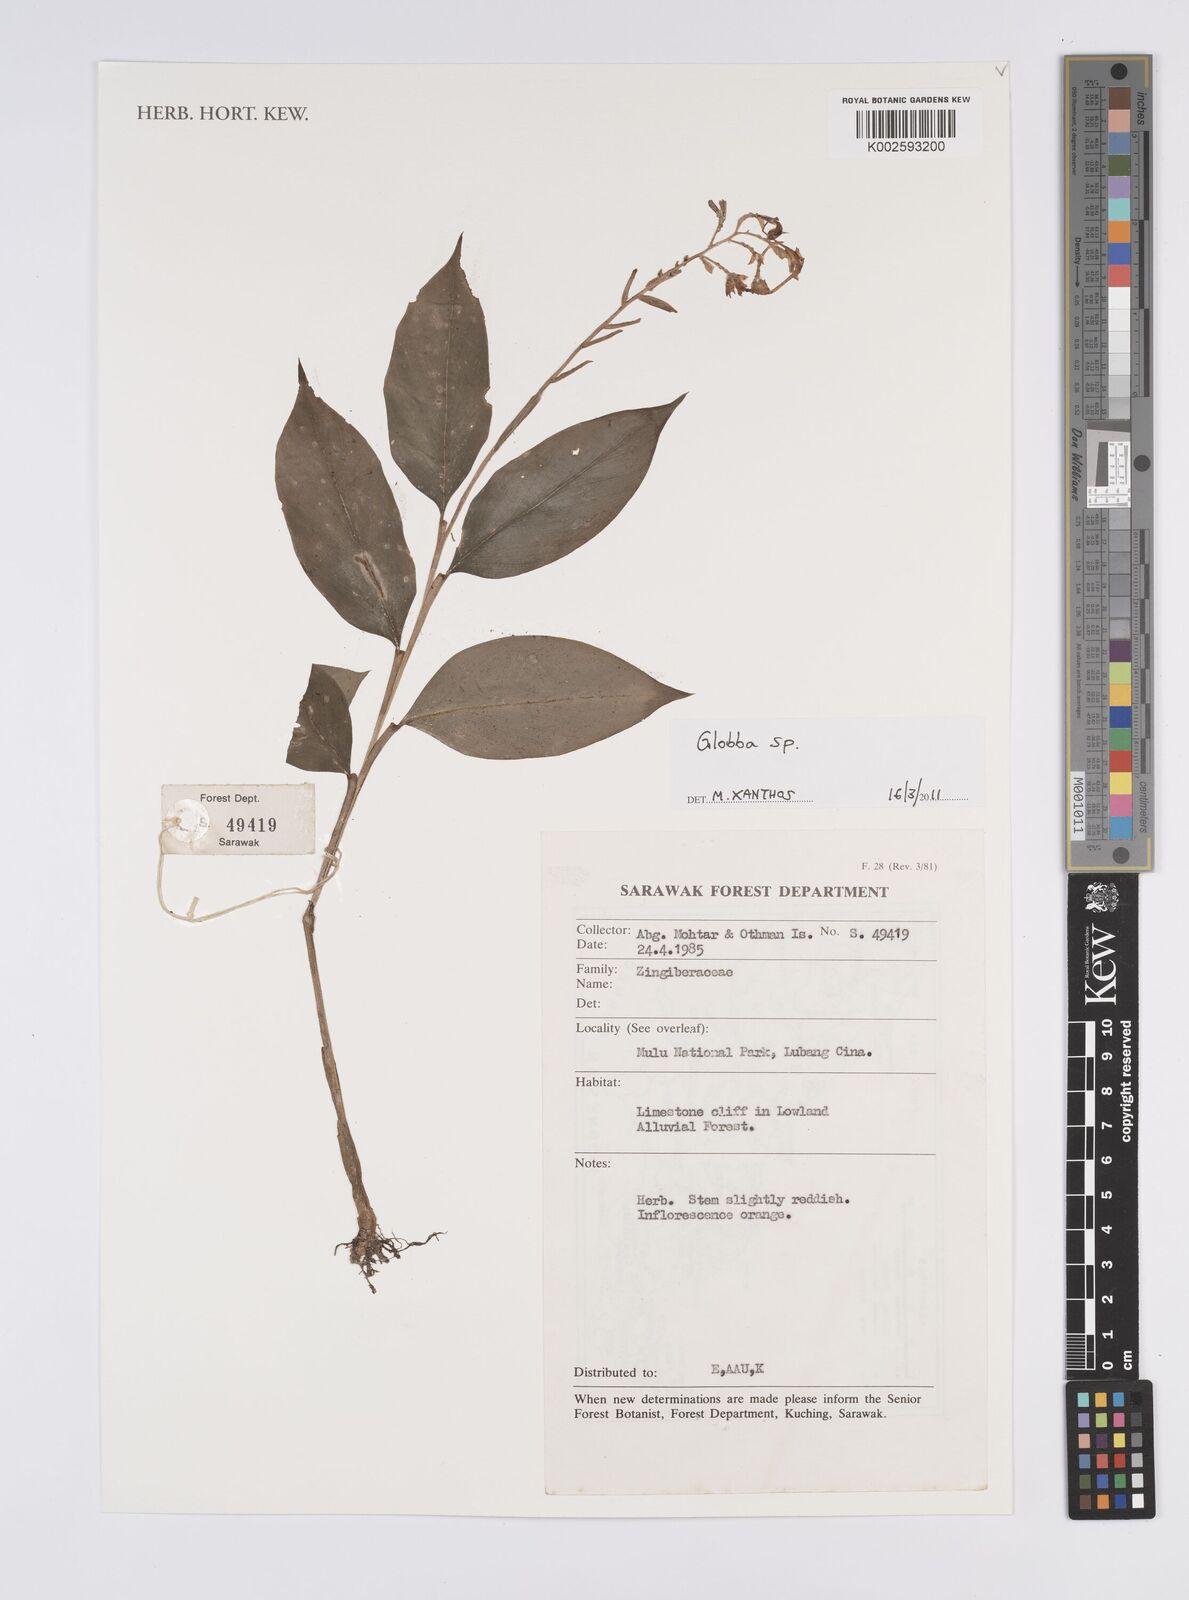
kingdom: Plantae
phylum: Tracheophyta
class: Liliopsida
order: Zingiberales
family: Zingiberaceae
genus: Globba
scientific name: Globba
